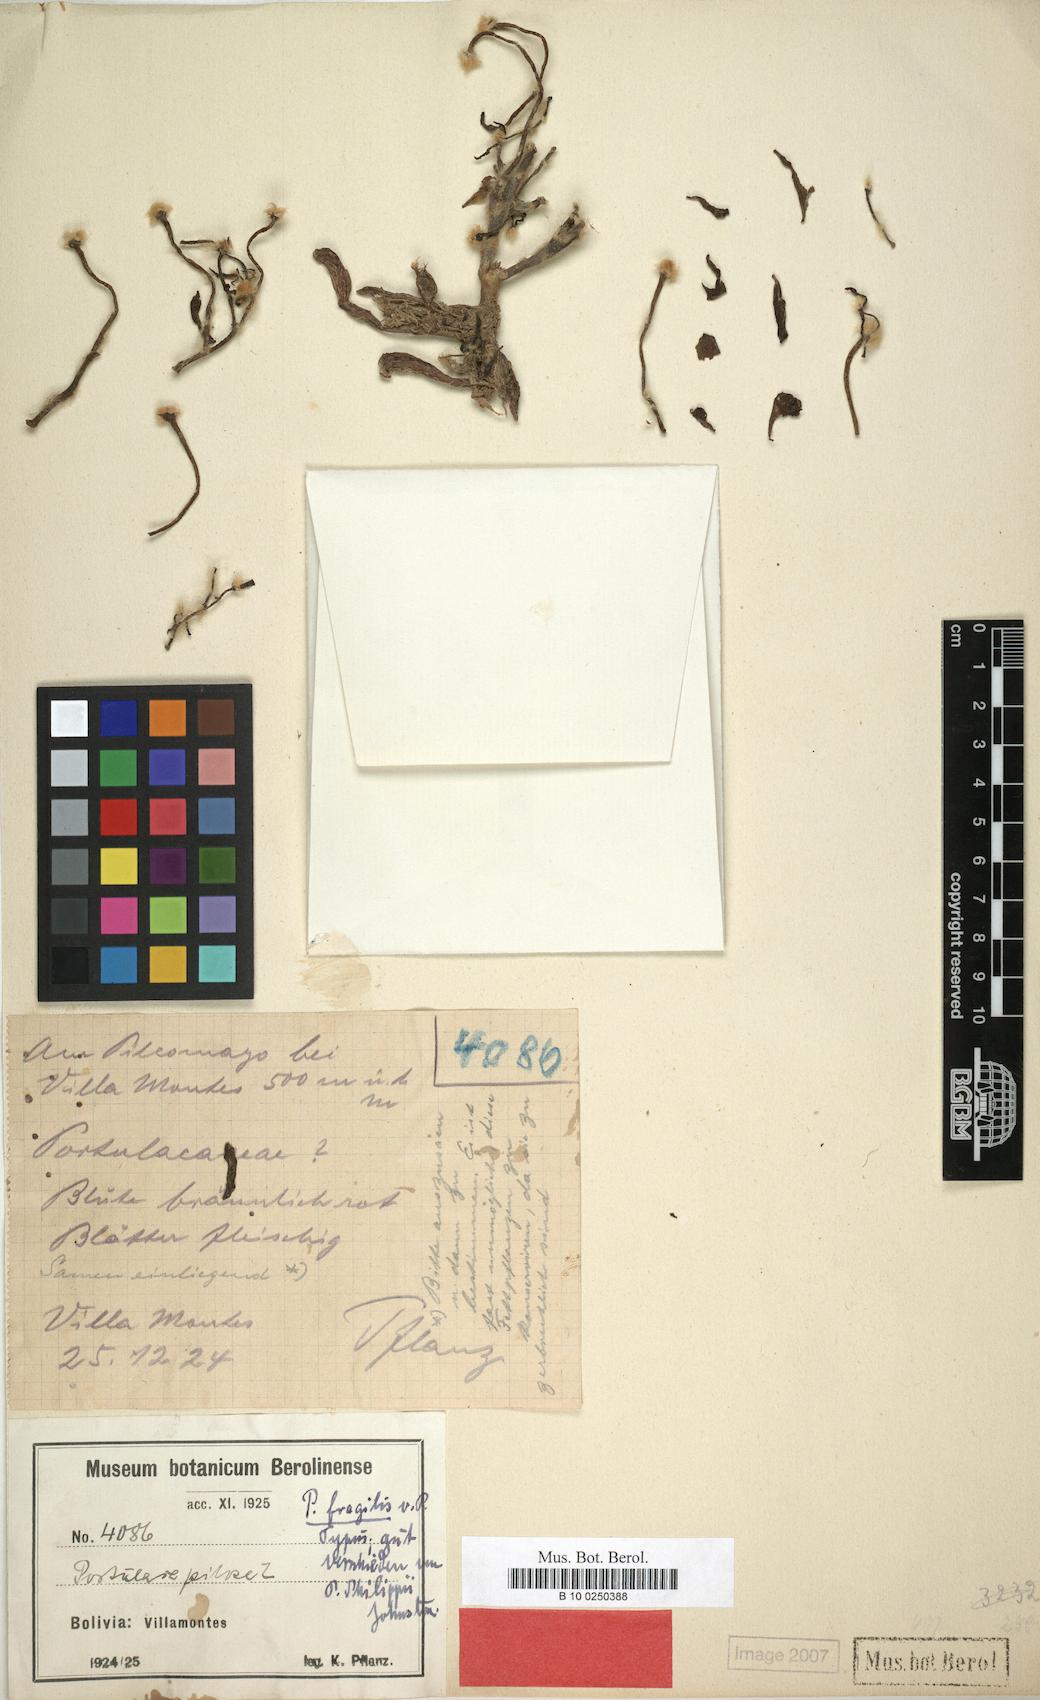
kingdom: Plantae
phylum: Tracheophyta
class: Magnoliopsida
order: Caryophyllales
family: Portulacaceae
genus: Portulaca
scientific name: Portulaca fragilis
